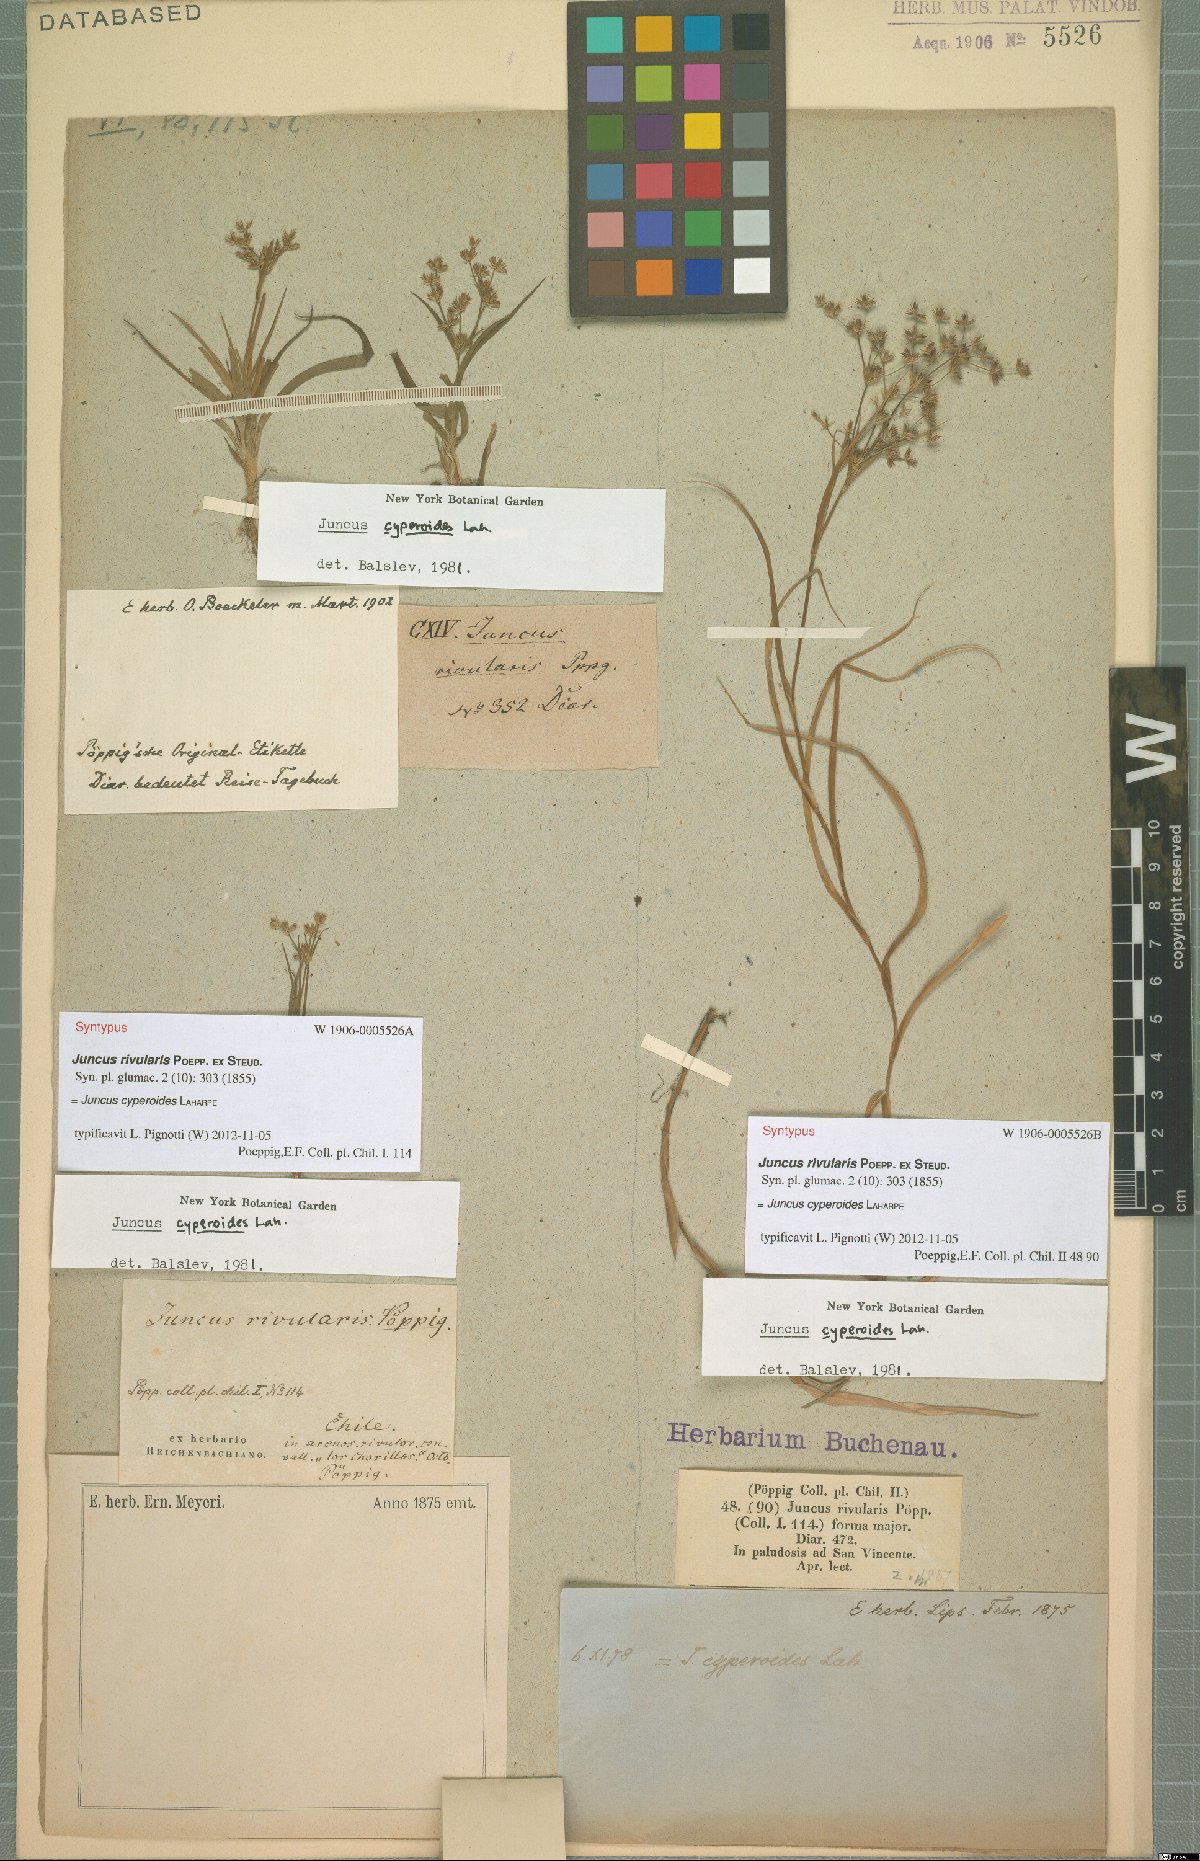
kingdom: Plantae
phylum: Tracheophyta
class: Liliopsida
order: Poales
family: Juncaceae
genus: Juncus
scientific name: Juncus cyperoides
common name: Forbestown rush
